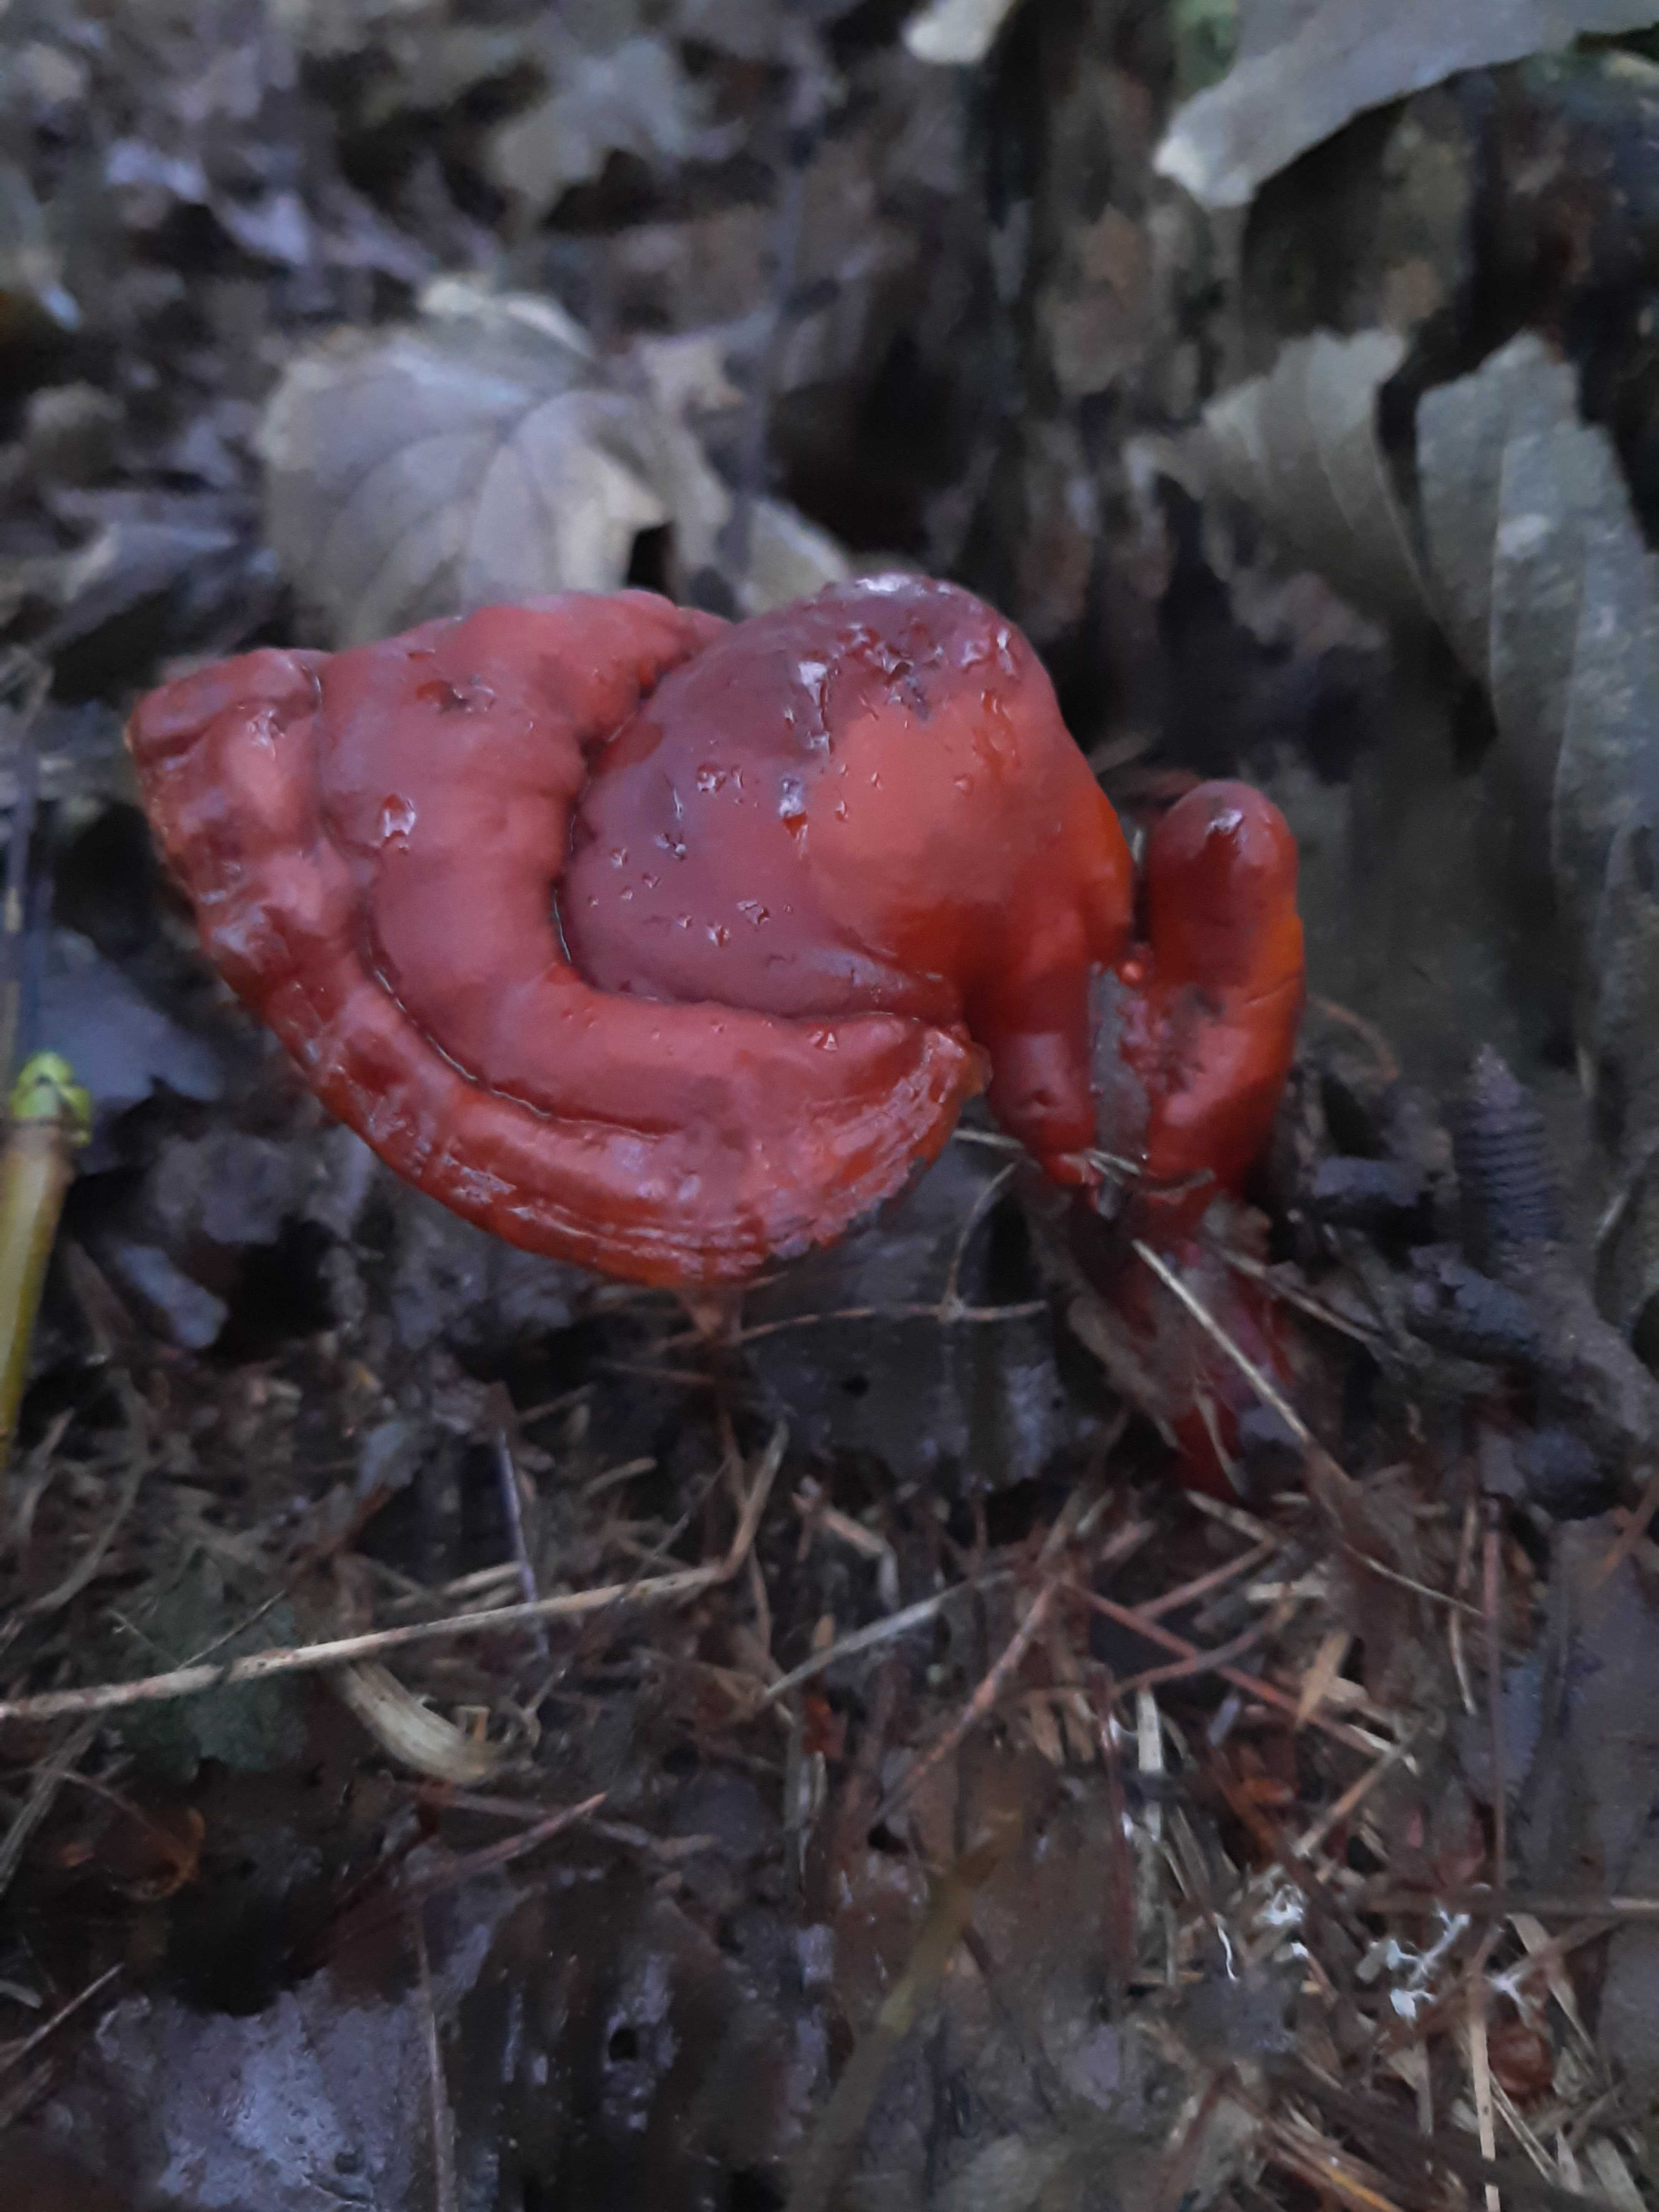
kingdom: Fungi
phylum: Basidiomycota
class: Agaricomycetes
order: Polyporales
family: Polyporaceae
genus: Ganoderma
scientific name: Ganoderma lucidum
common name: skinnende lakporesvamp
